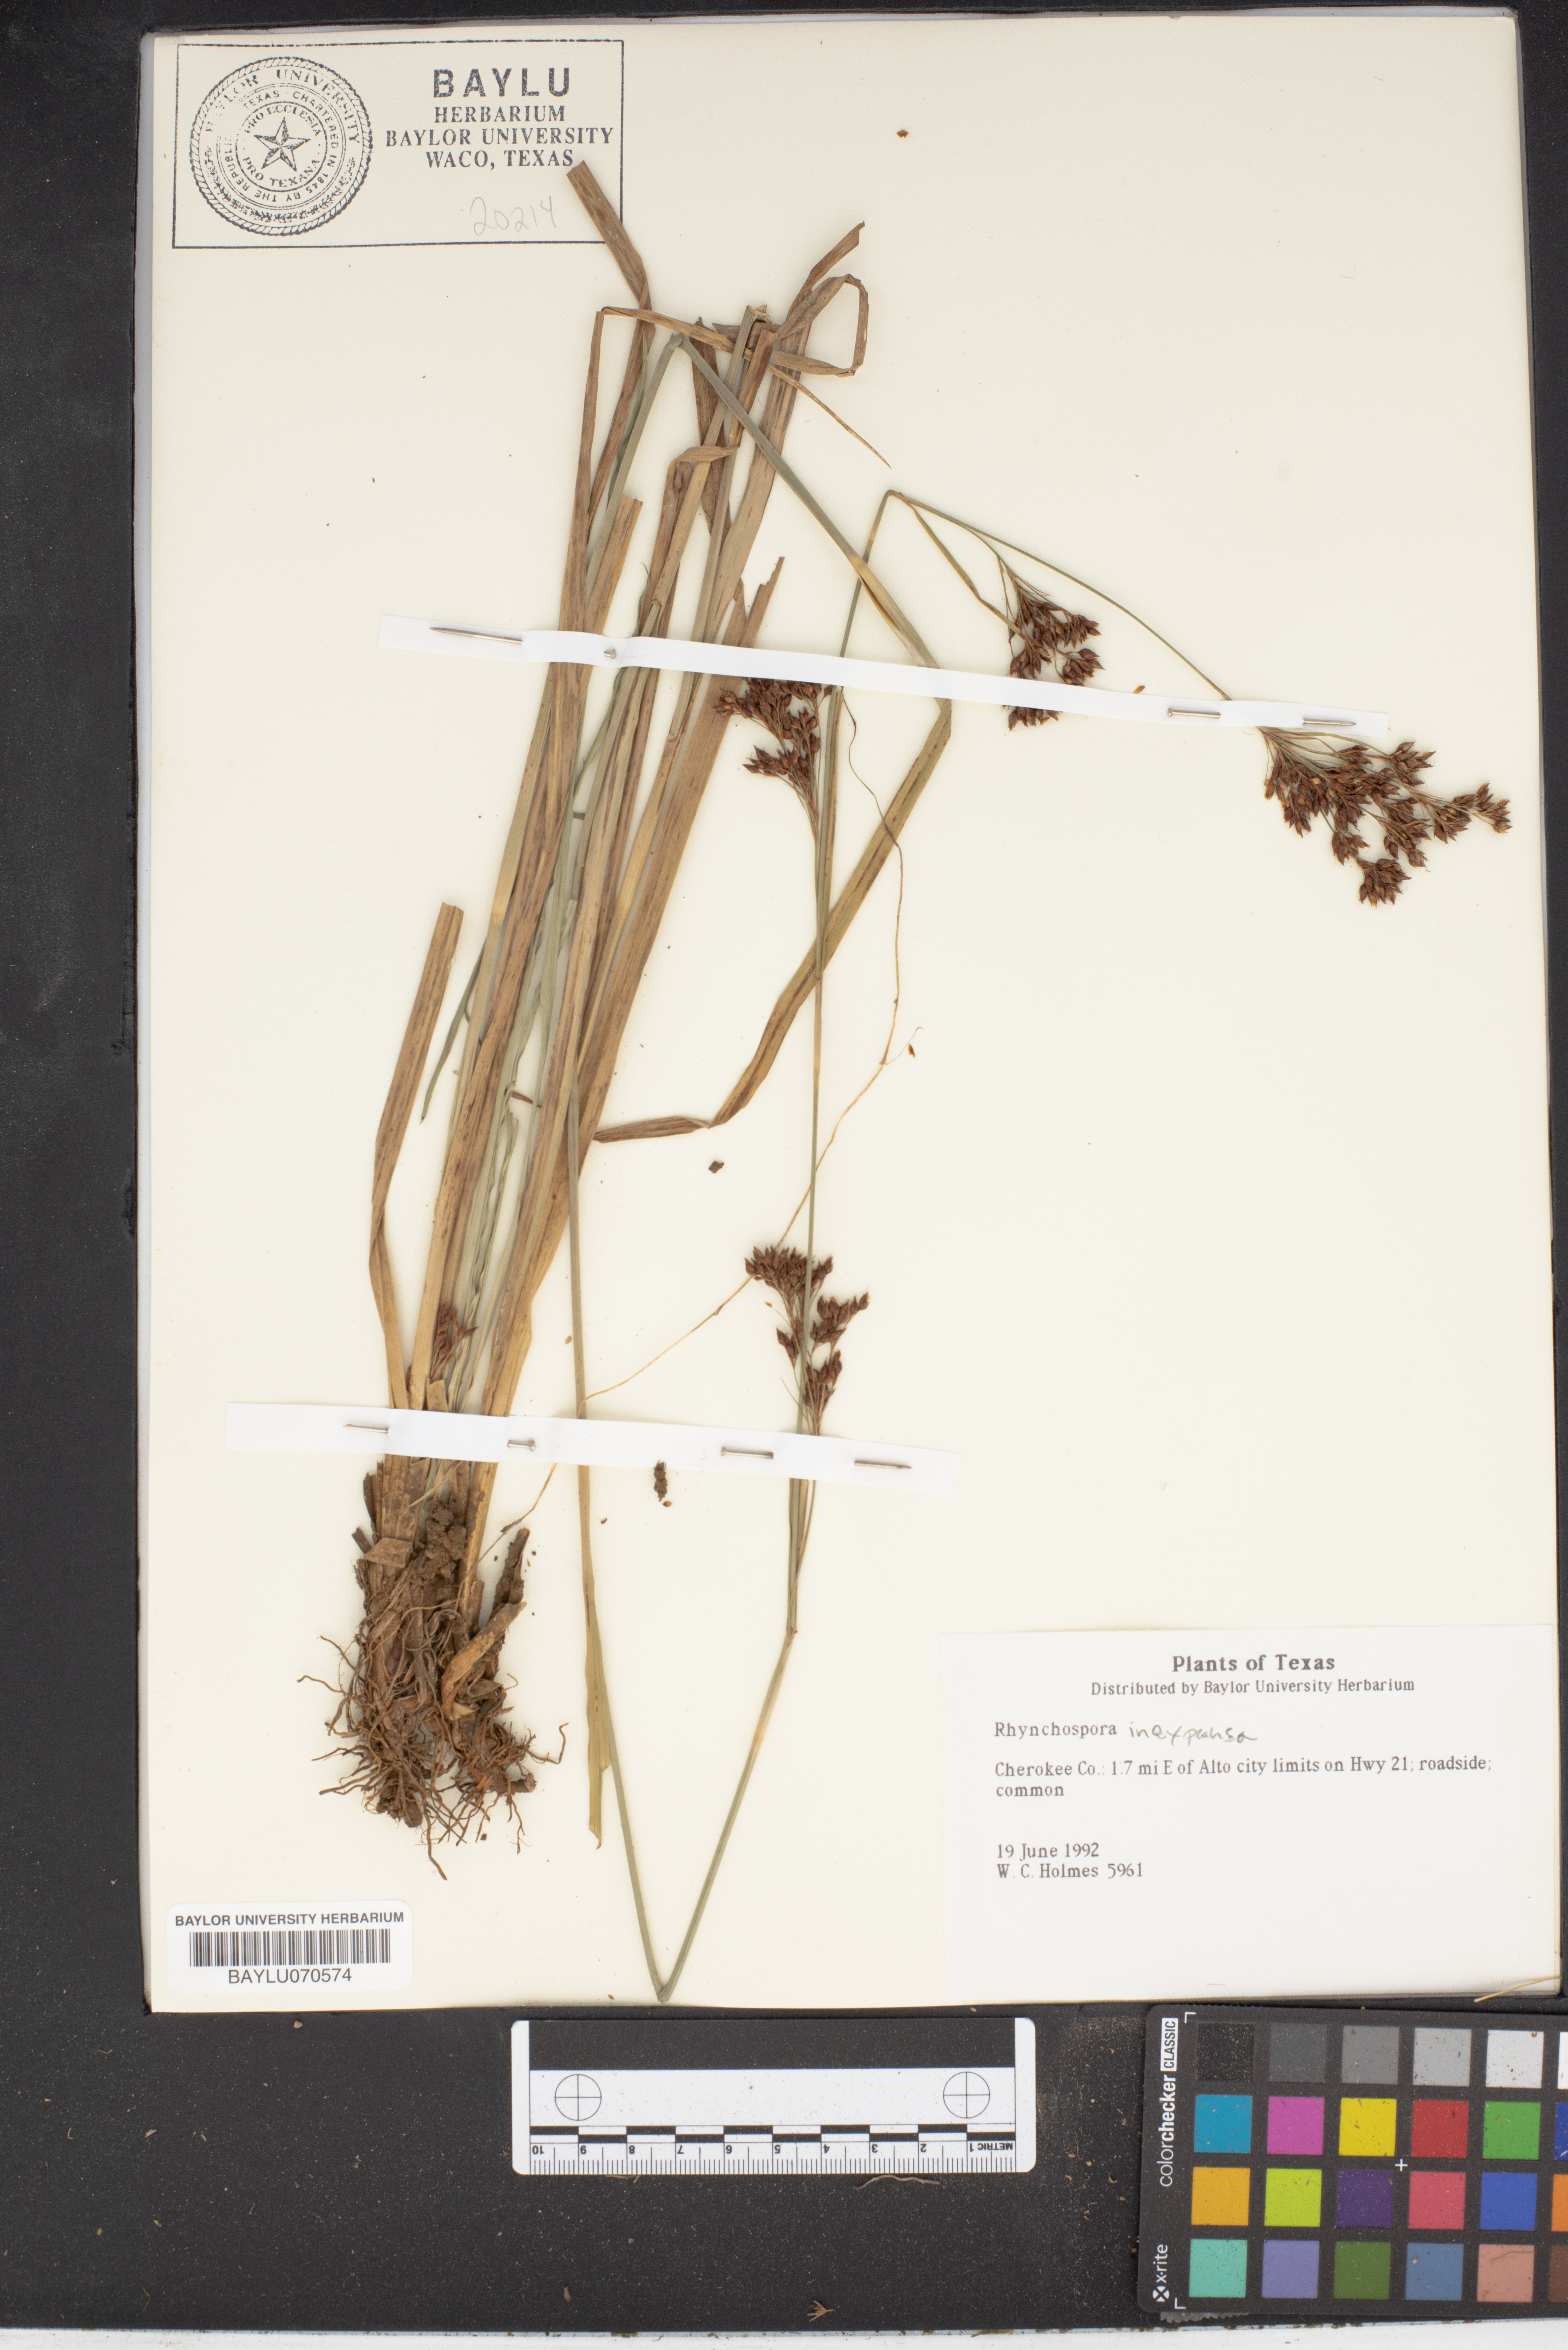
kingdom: Plantae
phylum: Tracheophyta
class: Liliopsida
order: Poales
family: Cyperaceae
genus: Rhynchospora
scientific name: Rhynchospora inexpansa
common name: Nodding beaksedge
